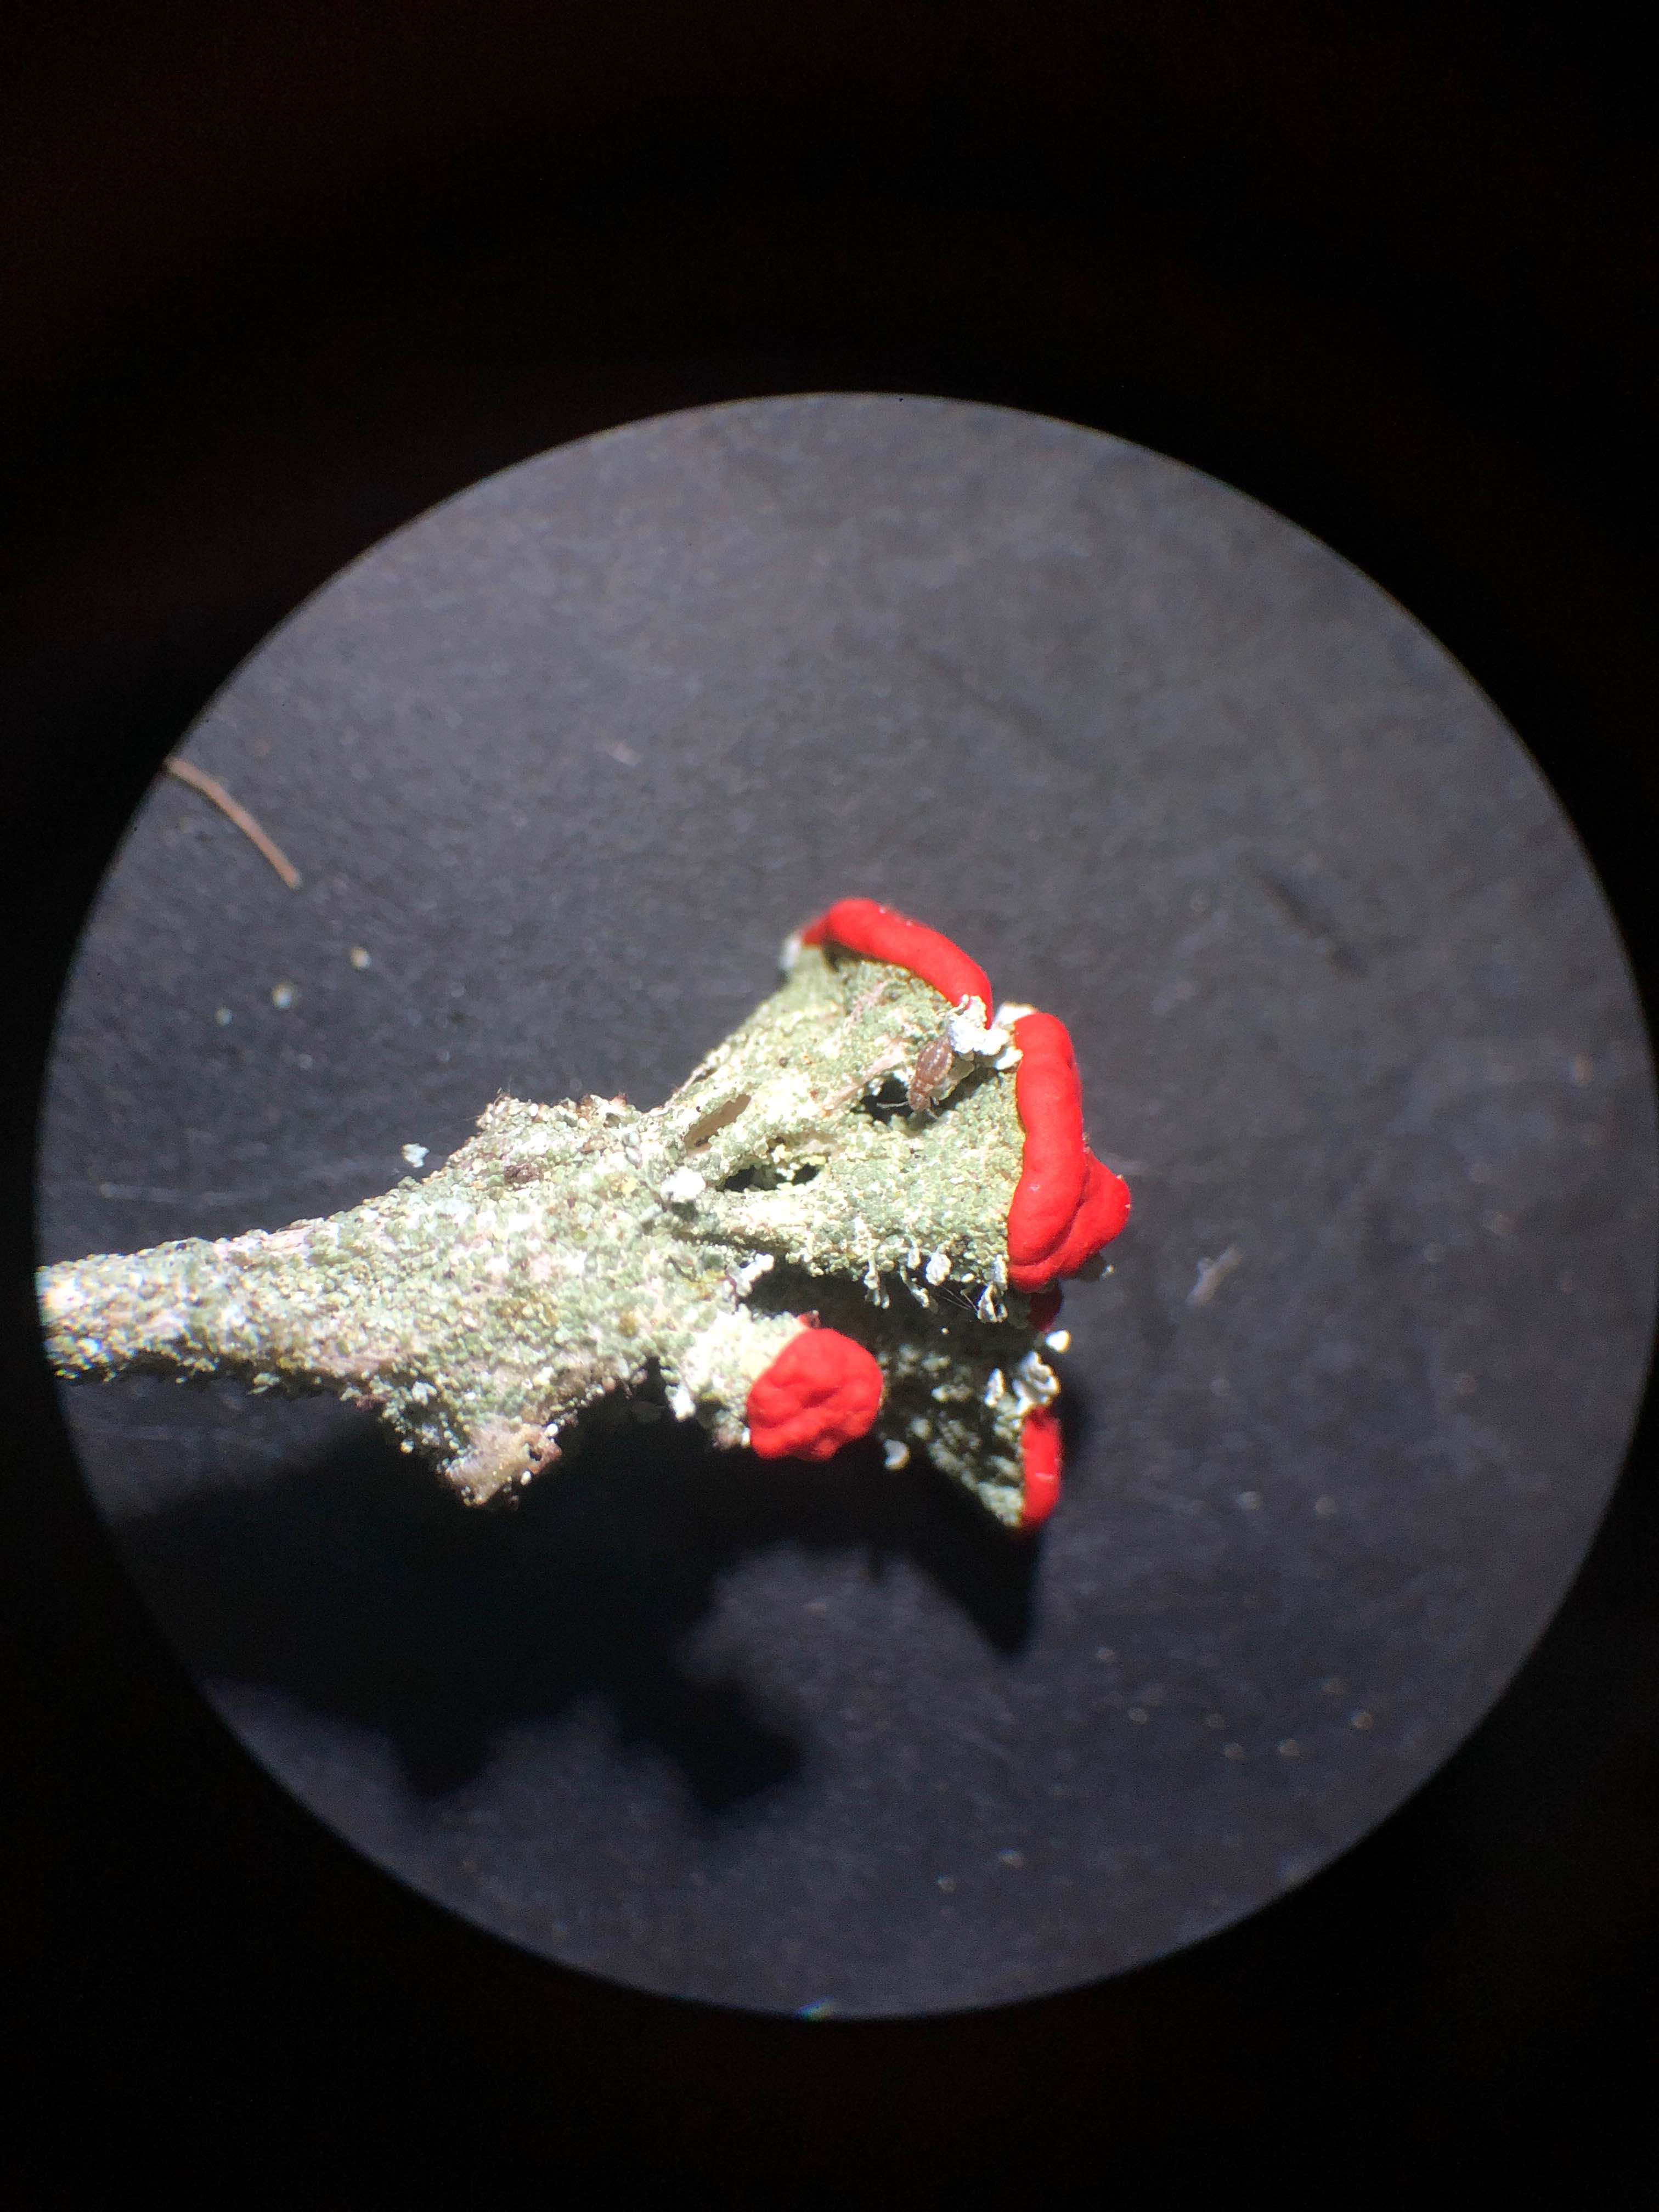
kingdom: Fungi
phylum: Ascomycota
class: Lecanoromycetes
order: Lecanorales
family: Cladoniaceae
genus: Cladonia
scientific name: Cladonia floerkeana
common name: lakrød bægerlav
